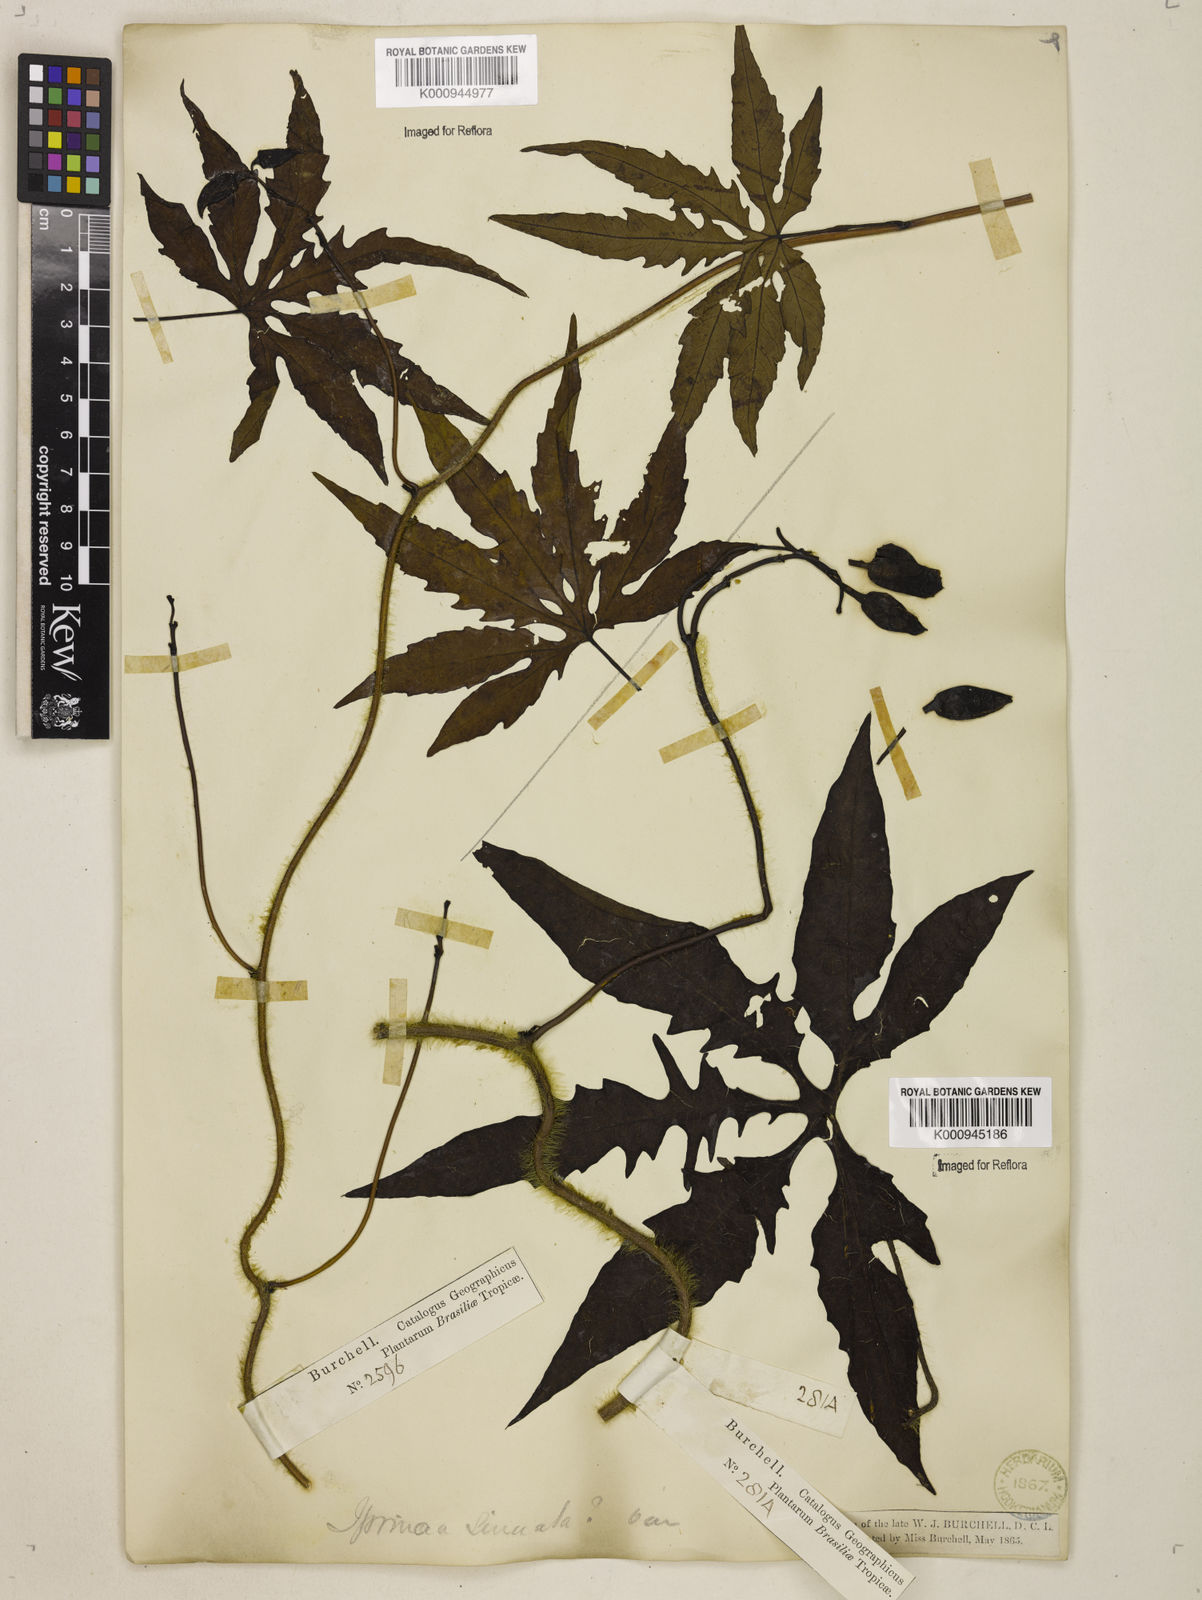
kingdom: Plantae
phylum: Tracheophyta
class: Magnoliopsida
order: Solanales
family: Convolvulaceae
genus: Distimake
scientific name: Distimake dissectus
